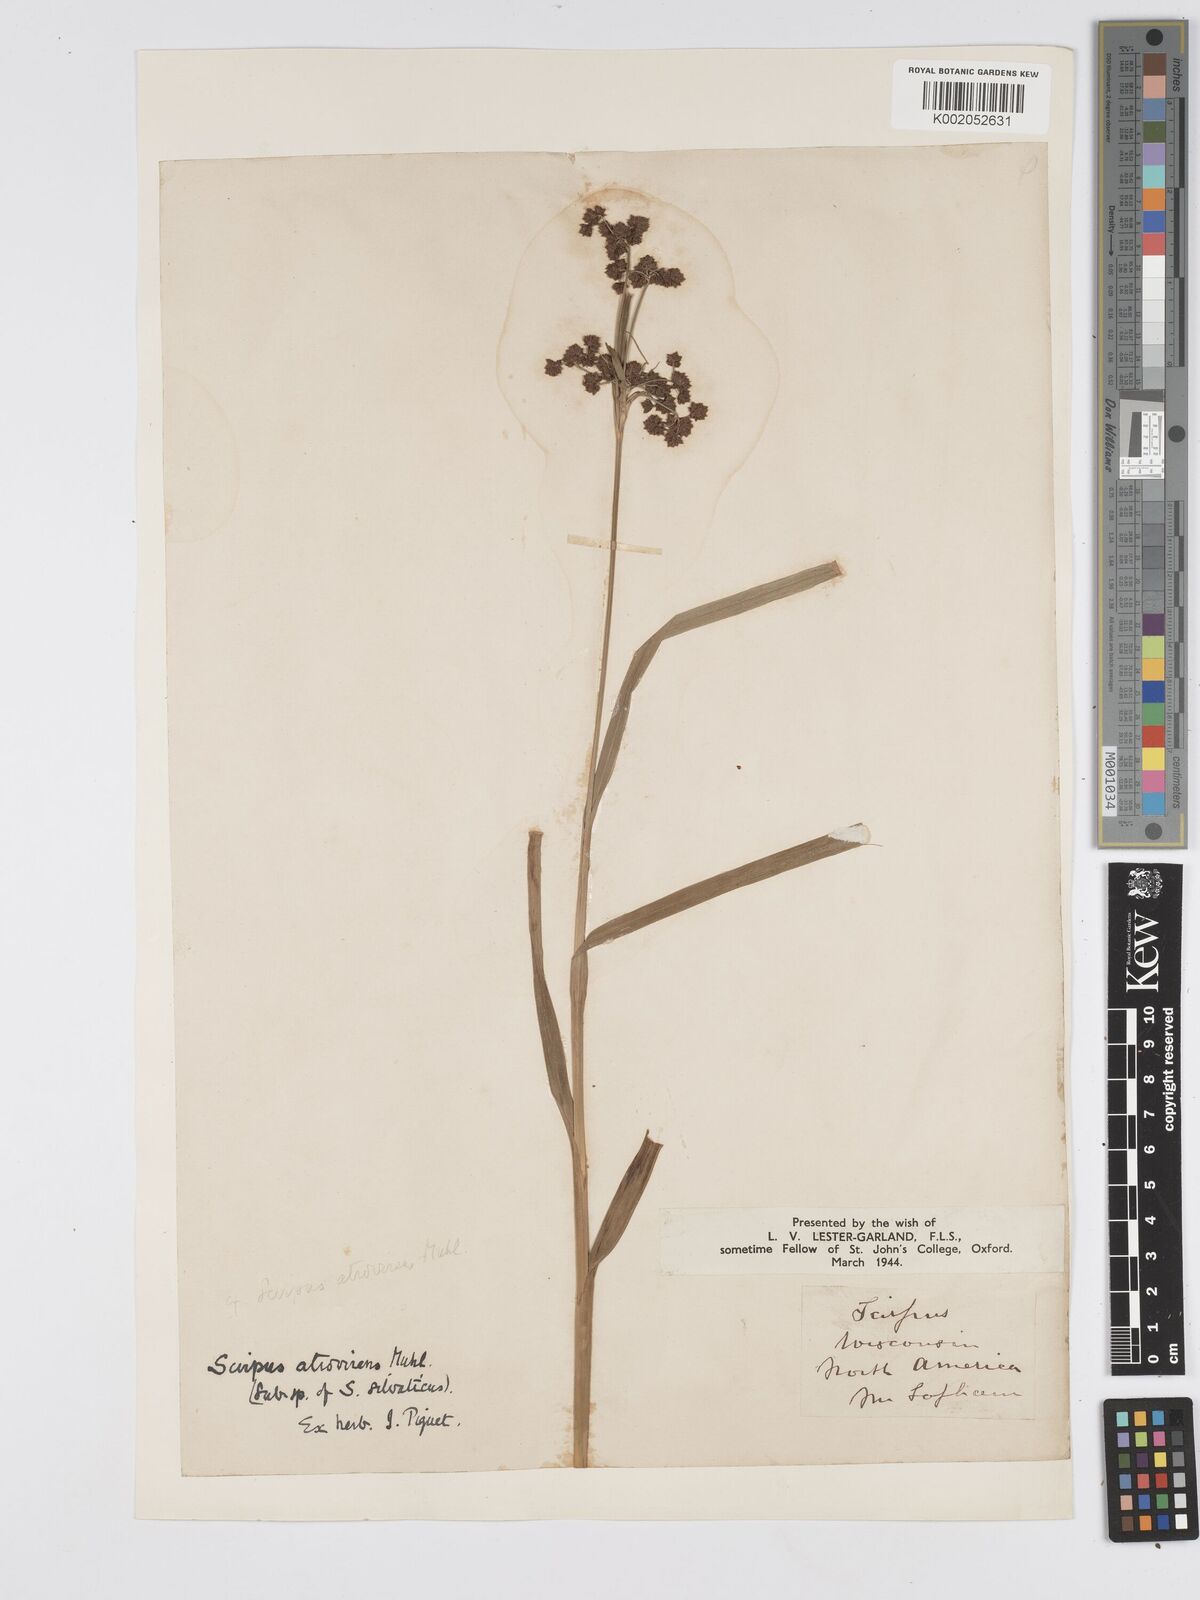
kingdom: Plantae
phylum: Tracheophyta
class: Liliopsida
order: Poales
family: Cyperaceae
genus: Scirpus
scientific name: Scirpus atrovirens
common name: Black bulrush
